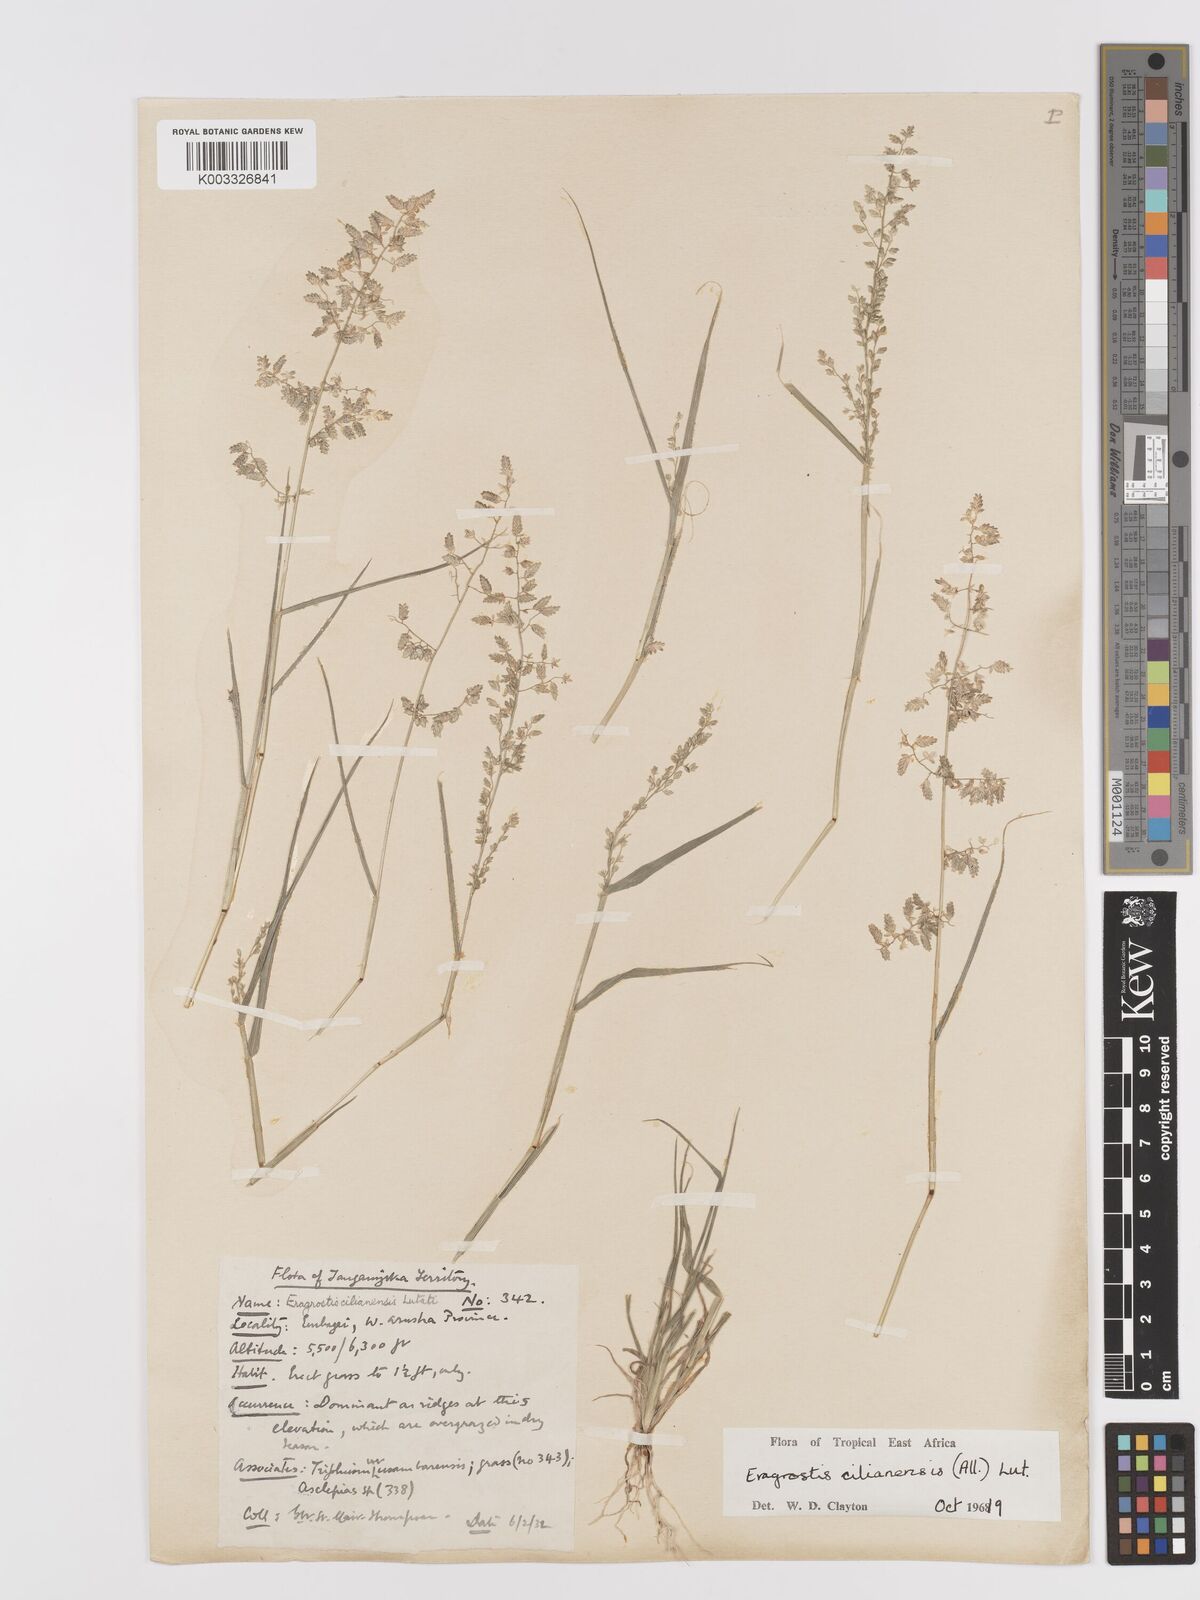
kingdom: Plantae
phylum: Tracheophyta
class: Liliopsida
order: Poales
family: Poaceae
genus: Eragrostis
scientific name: Eragrostis cilianensis
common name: Stinkgrass
